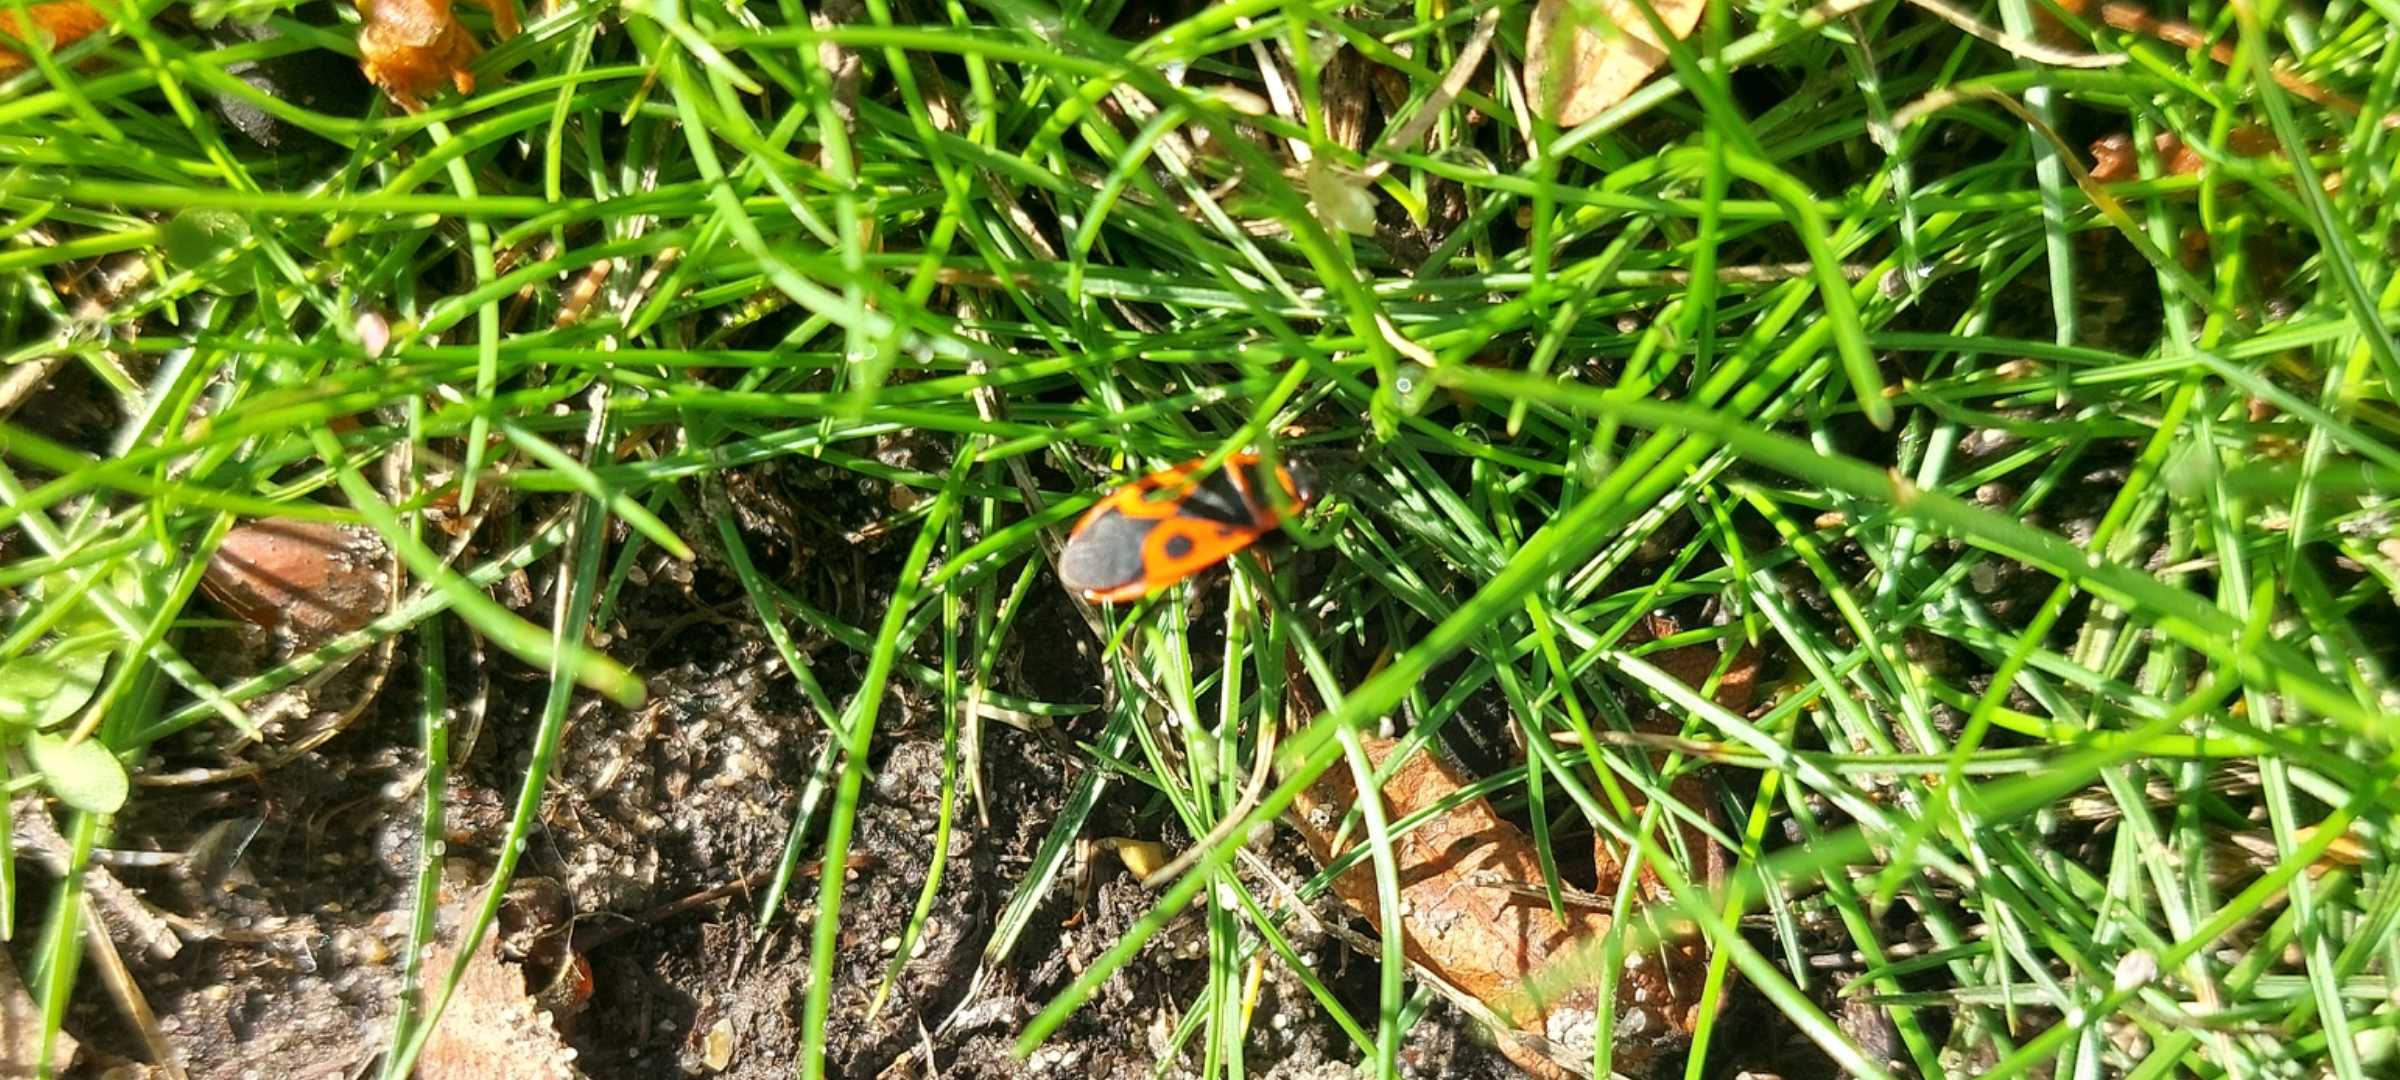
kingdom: Animalia
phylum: Arthropoda
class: Insecta
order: Hemiptera
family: Pyrrhocoridae
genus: Pyrrhocoris
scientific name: Pyrrhocoris apterus
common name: Ildtæge
